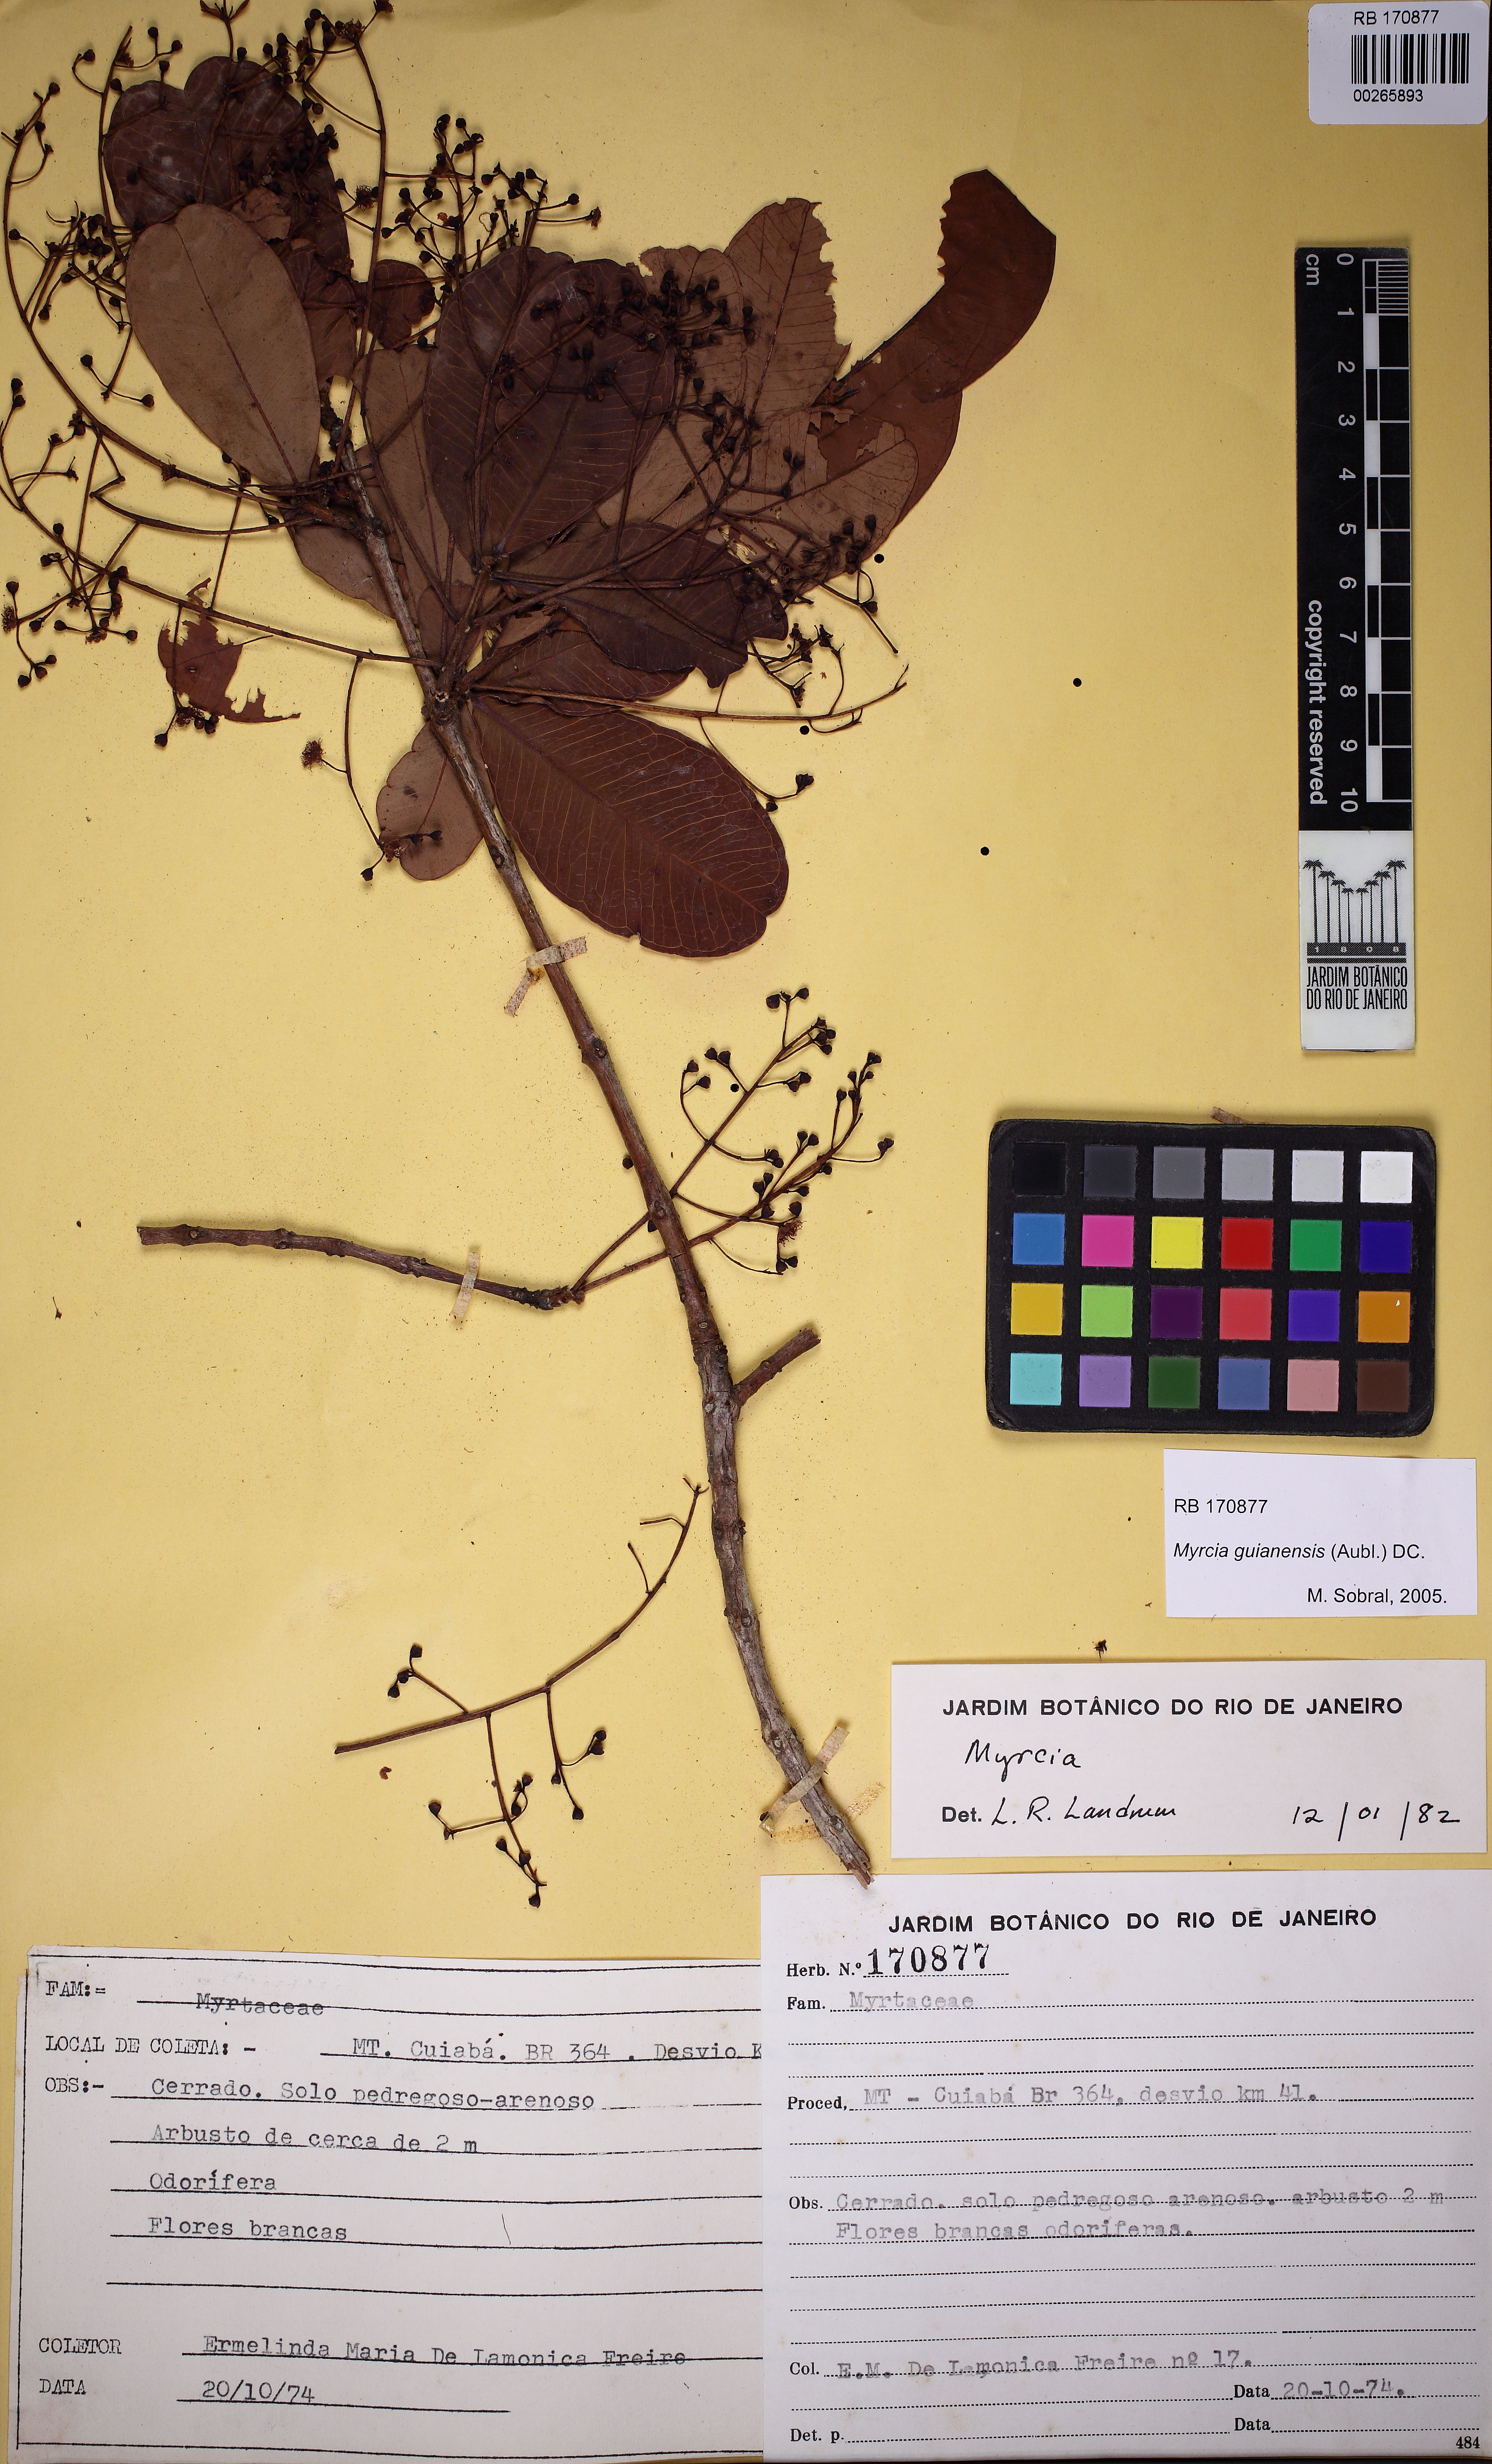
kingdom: Plantae
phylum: Tracheophyta
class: Magnoliopsida
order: Myrtales
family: Myrtaceae
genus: Myrcia
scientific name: Myrcia variabilis
